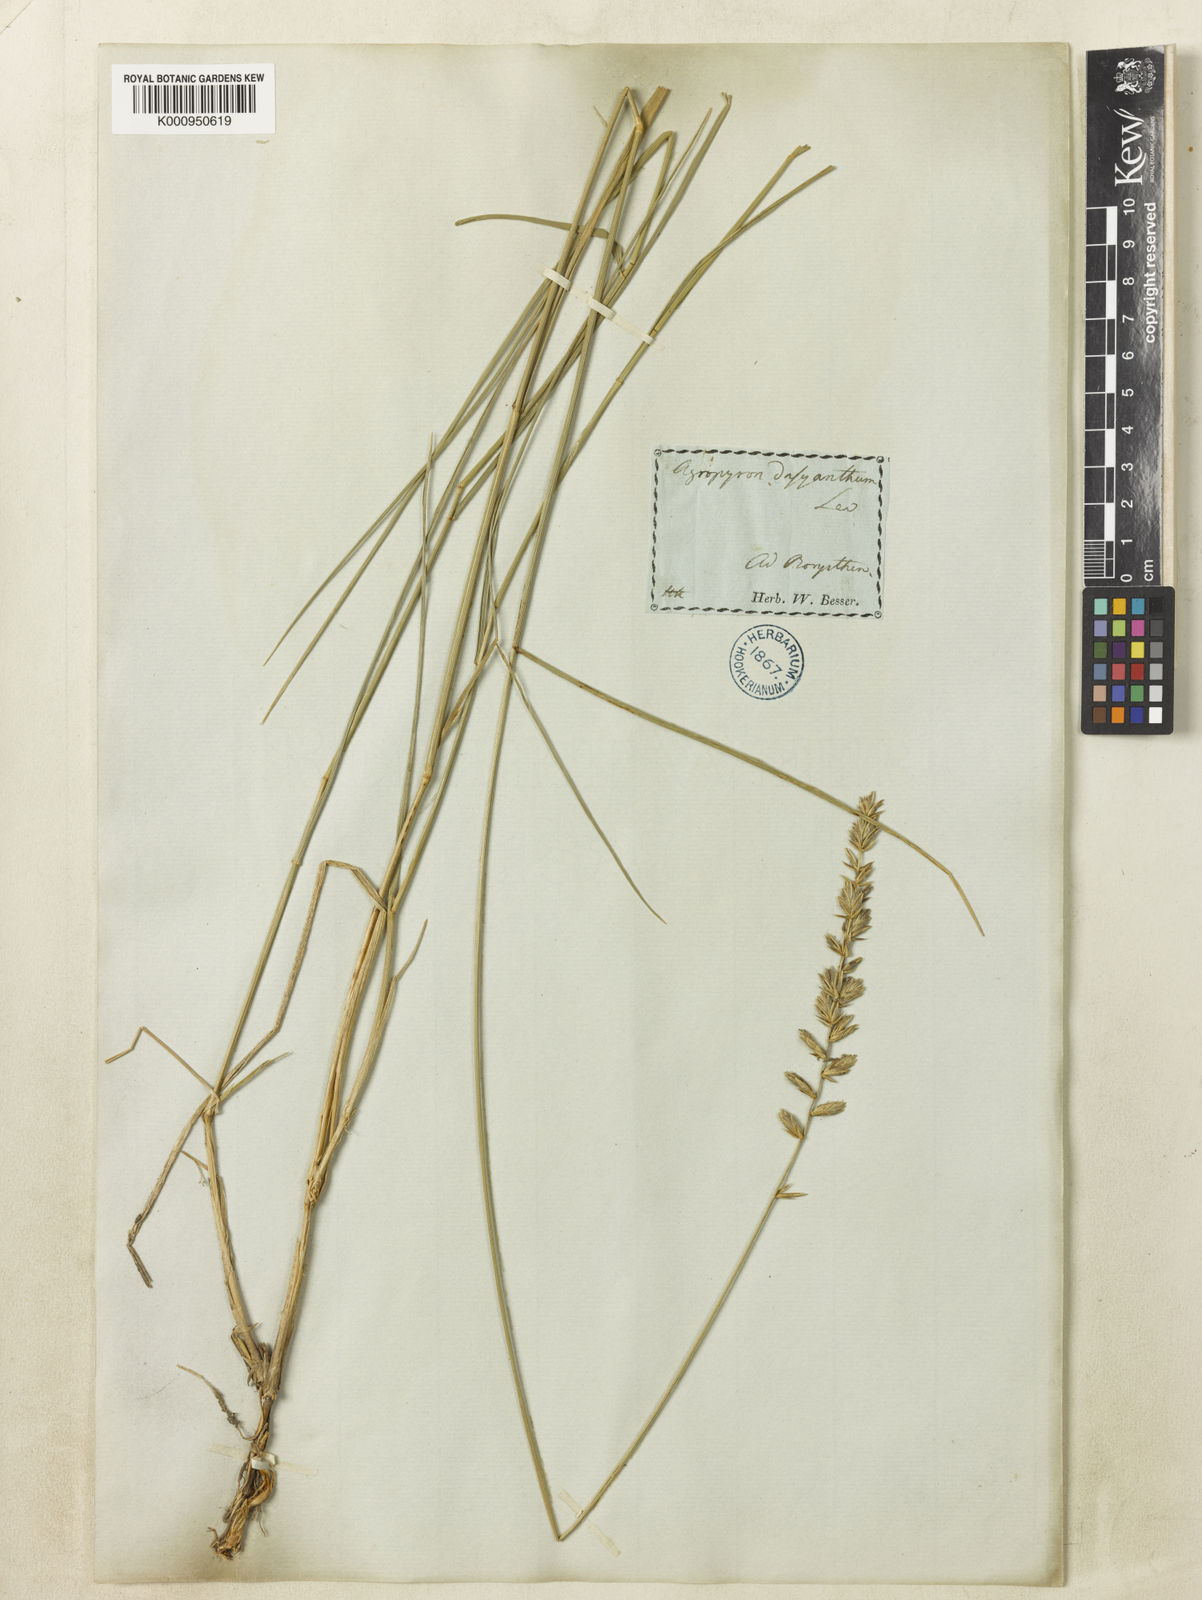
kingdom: Plantae
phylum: Tracheophyta
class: Liliopsida
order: Poales
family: Poaceae
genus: Agropyron
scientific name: Agropyron dasyanthum
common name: Edge flowered crested wheatgrass
